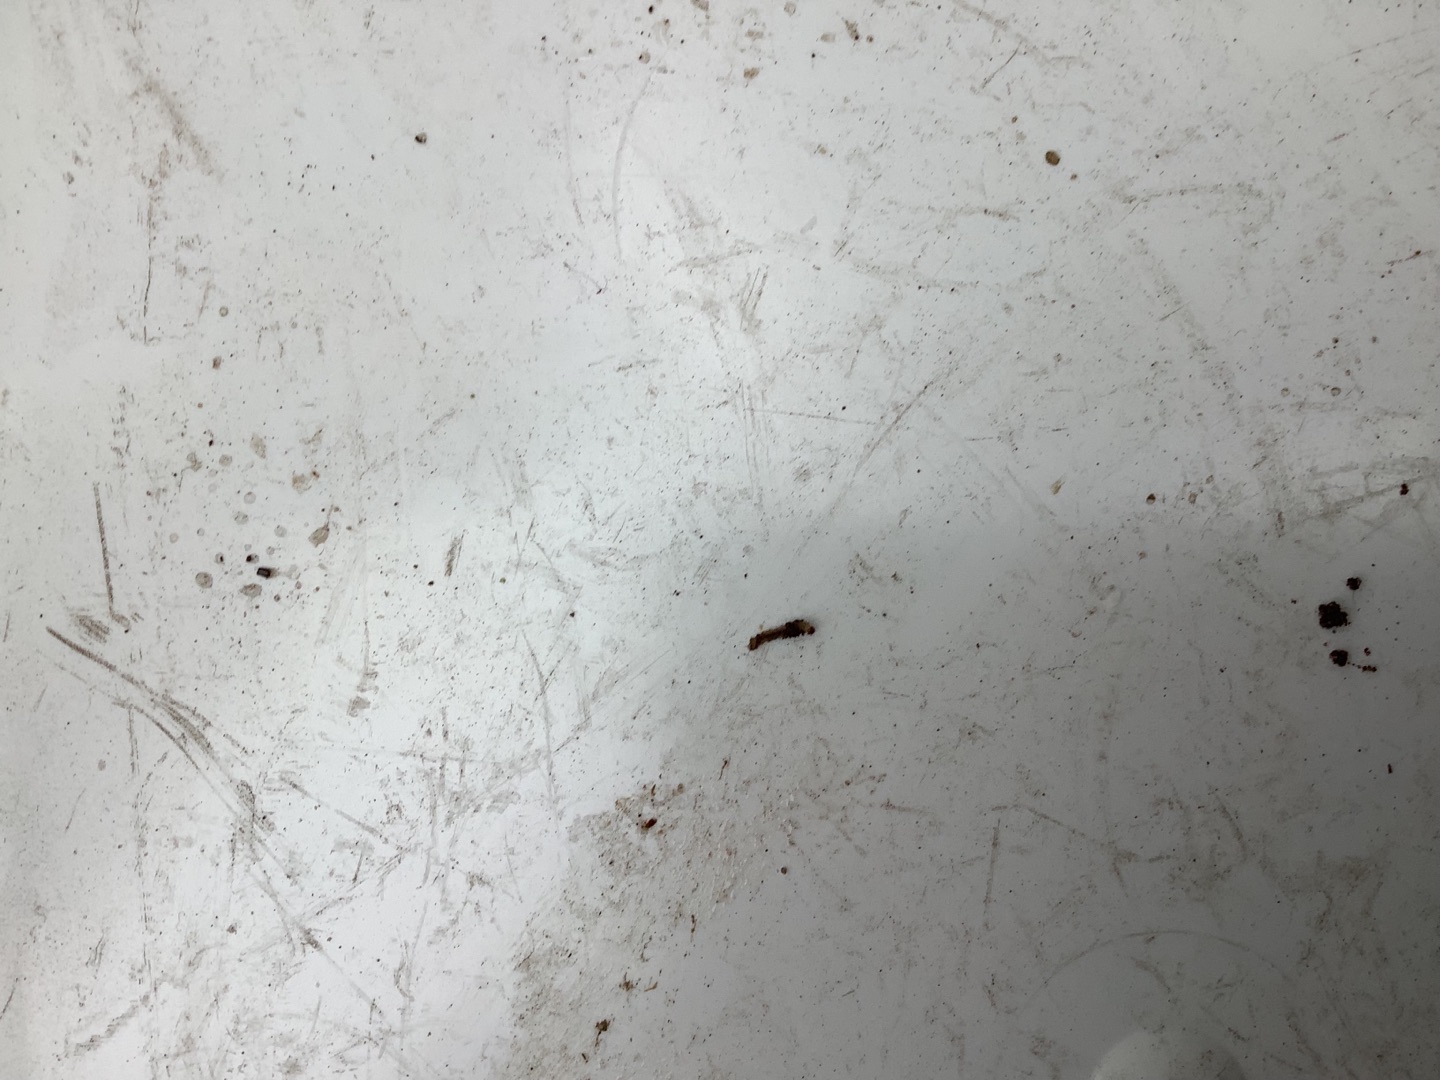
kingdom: Animalia
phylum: Arthropoda
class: Insecta
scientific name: Insecta
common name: Insekter
